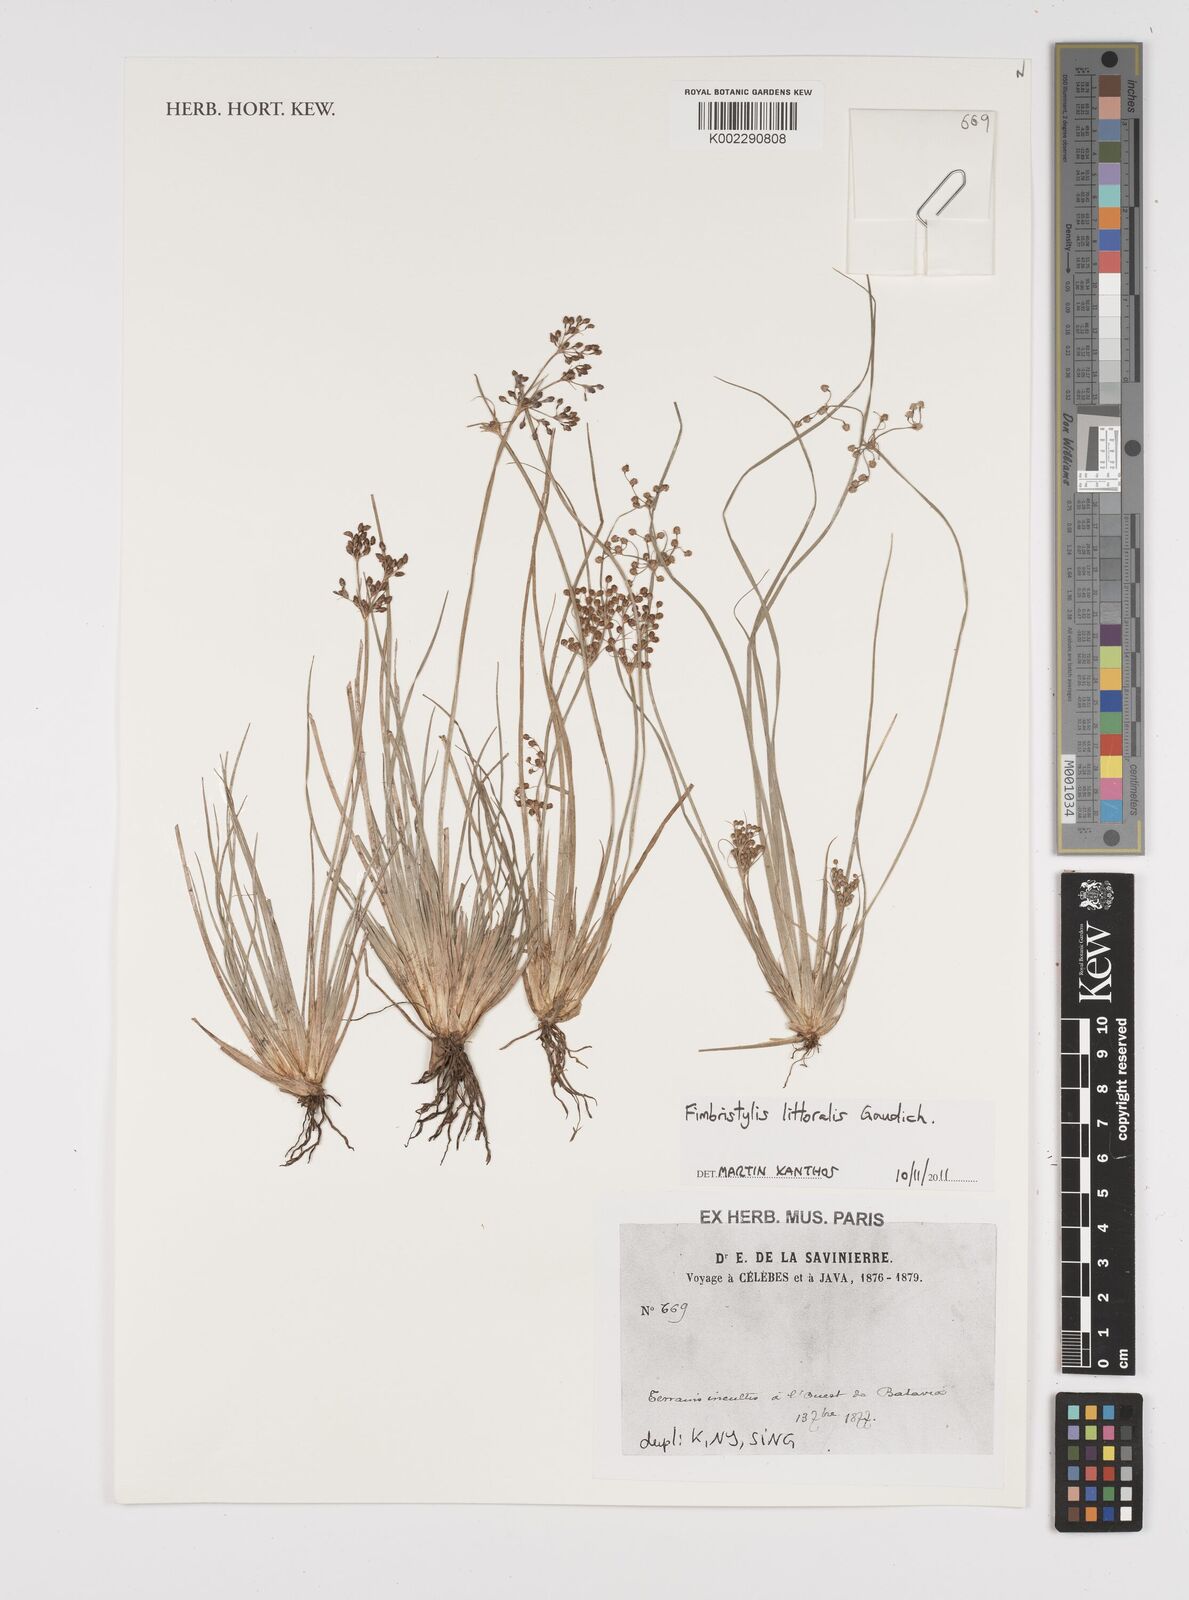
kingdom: Plantae
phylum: Tracheophyta
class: Liliopsida
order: Poales
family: Cyperaceae
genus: Fimbristylis
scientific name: Fimbristylis littoralis
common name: Fimbry
